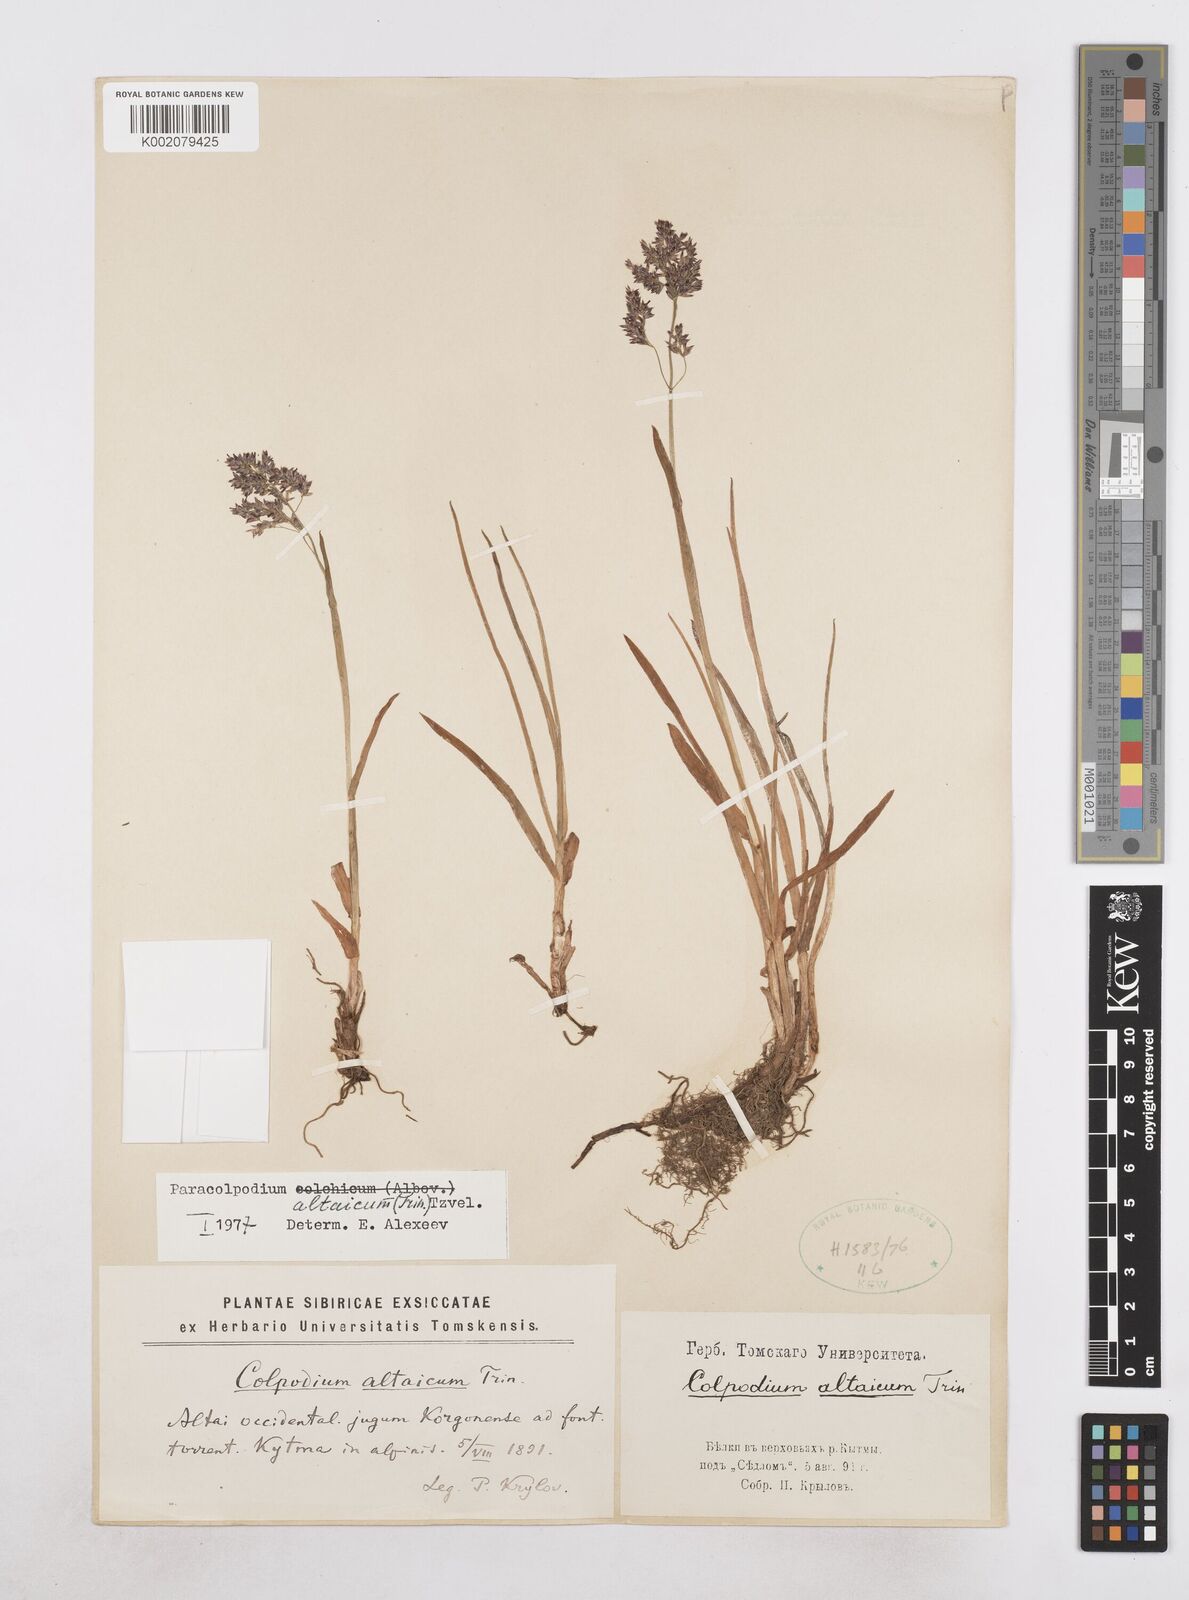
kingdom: Plantae
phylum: Tracheophyta
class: Liliopsida
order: Poales
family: Poaceae
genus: Paracolpodium
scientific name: Paracolpodium altaicum
